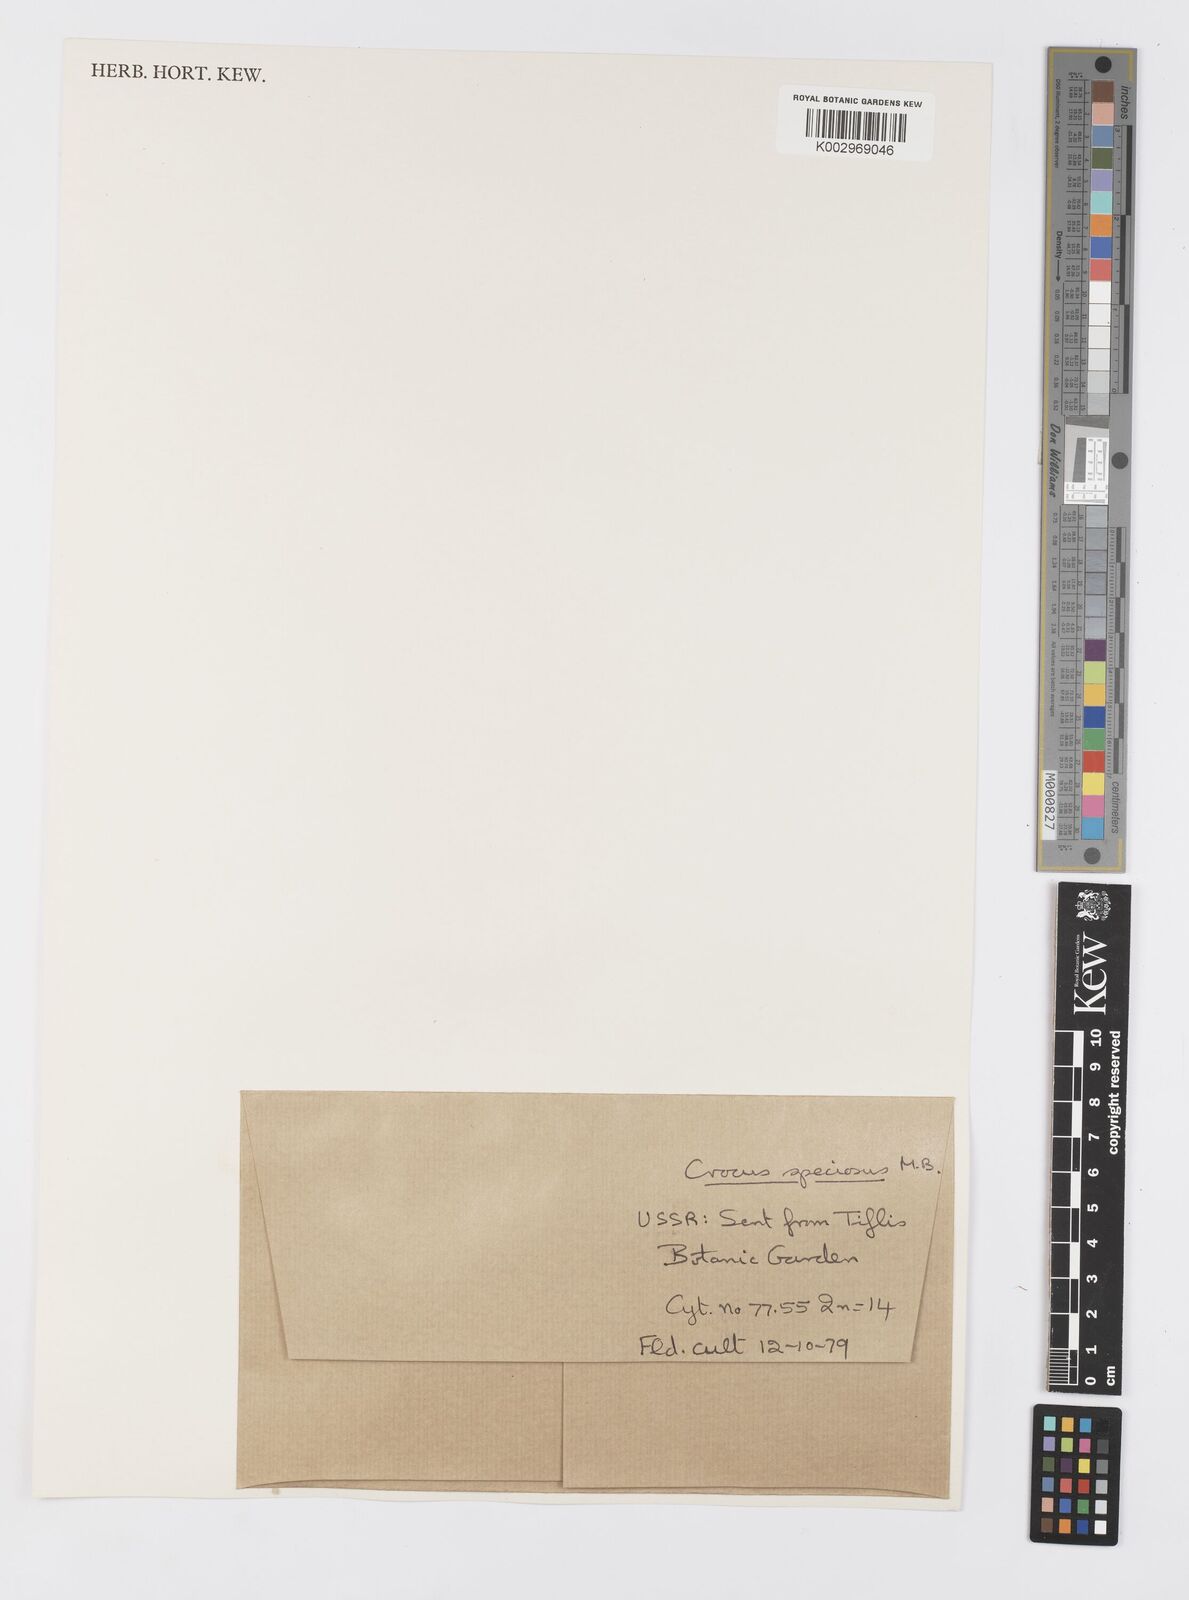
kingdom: Plantae
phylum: Tracheophyta
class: Liliopsida
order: Asparagales
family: Iridaceae
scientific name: Iridaceae
